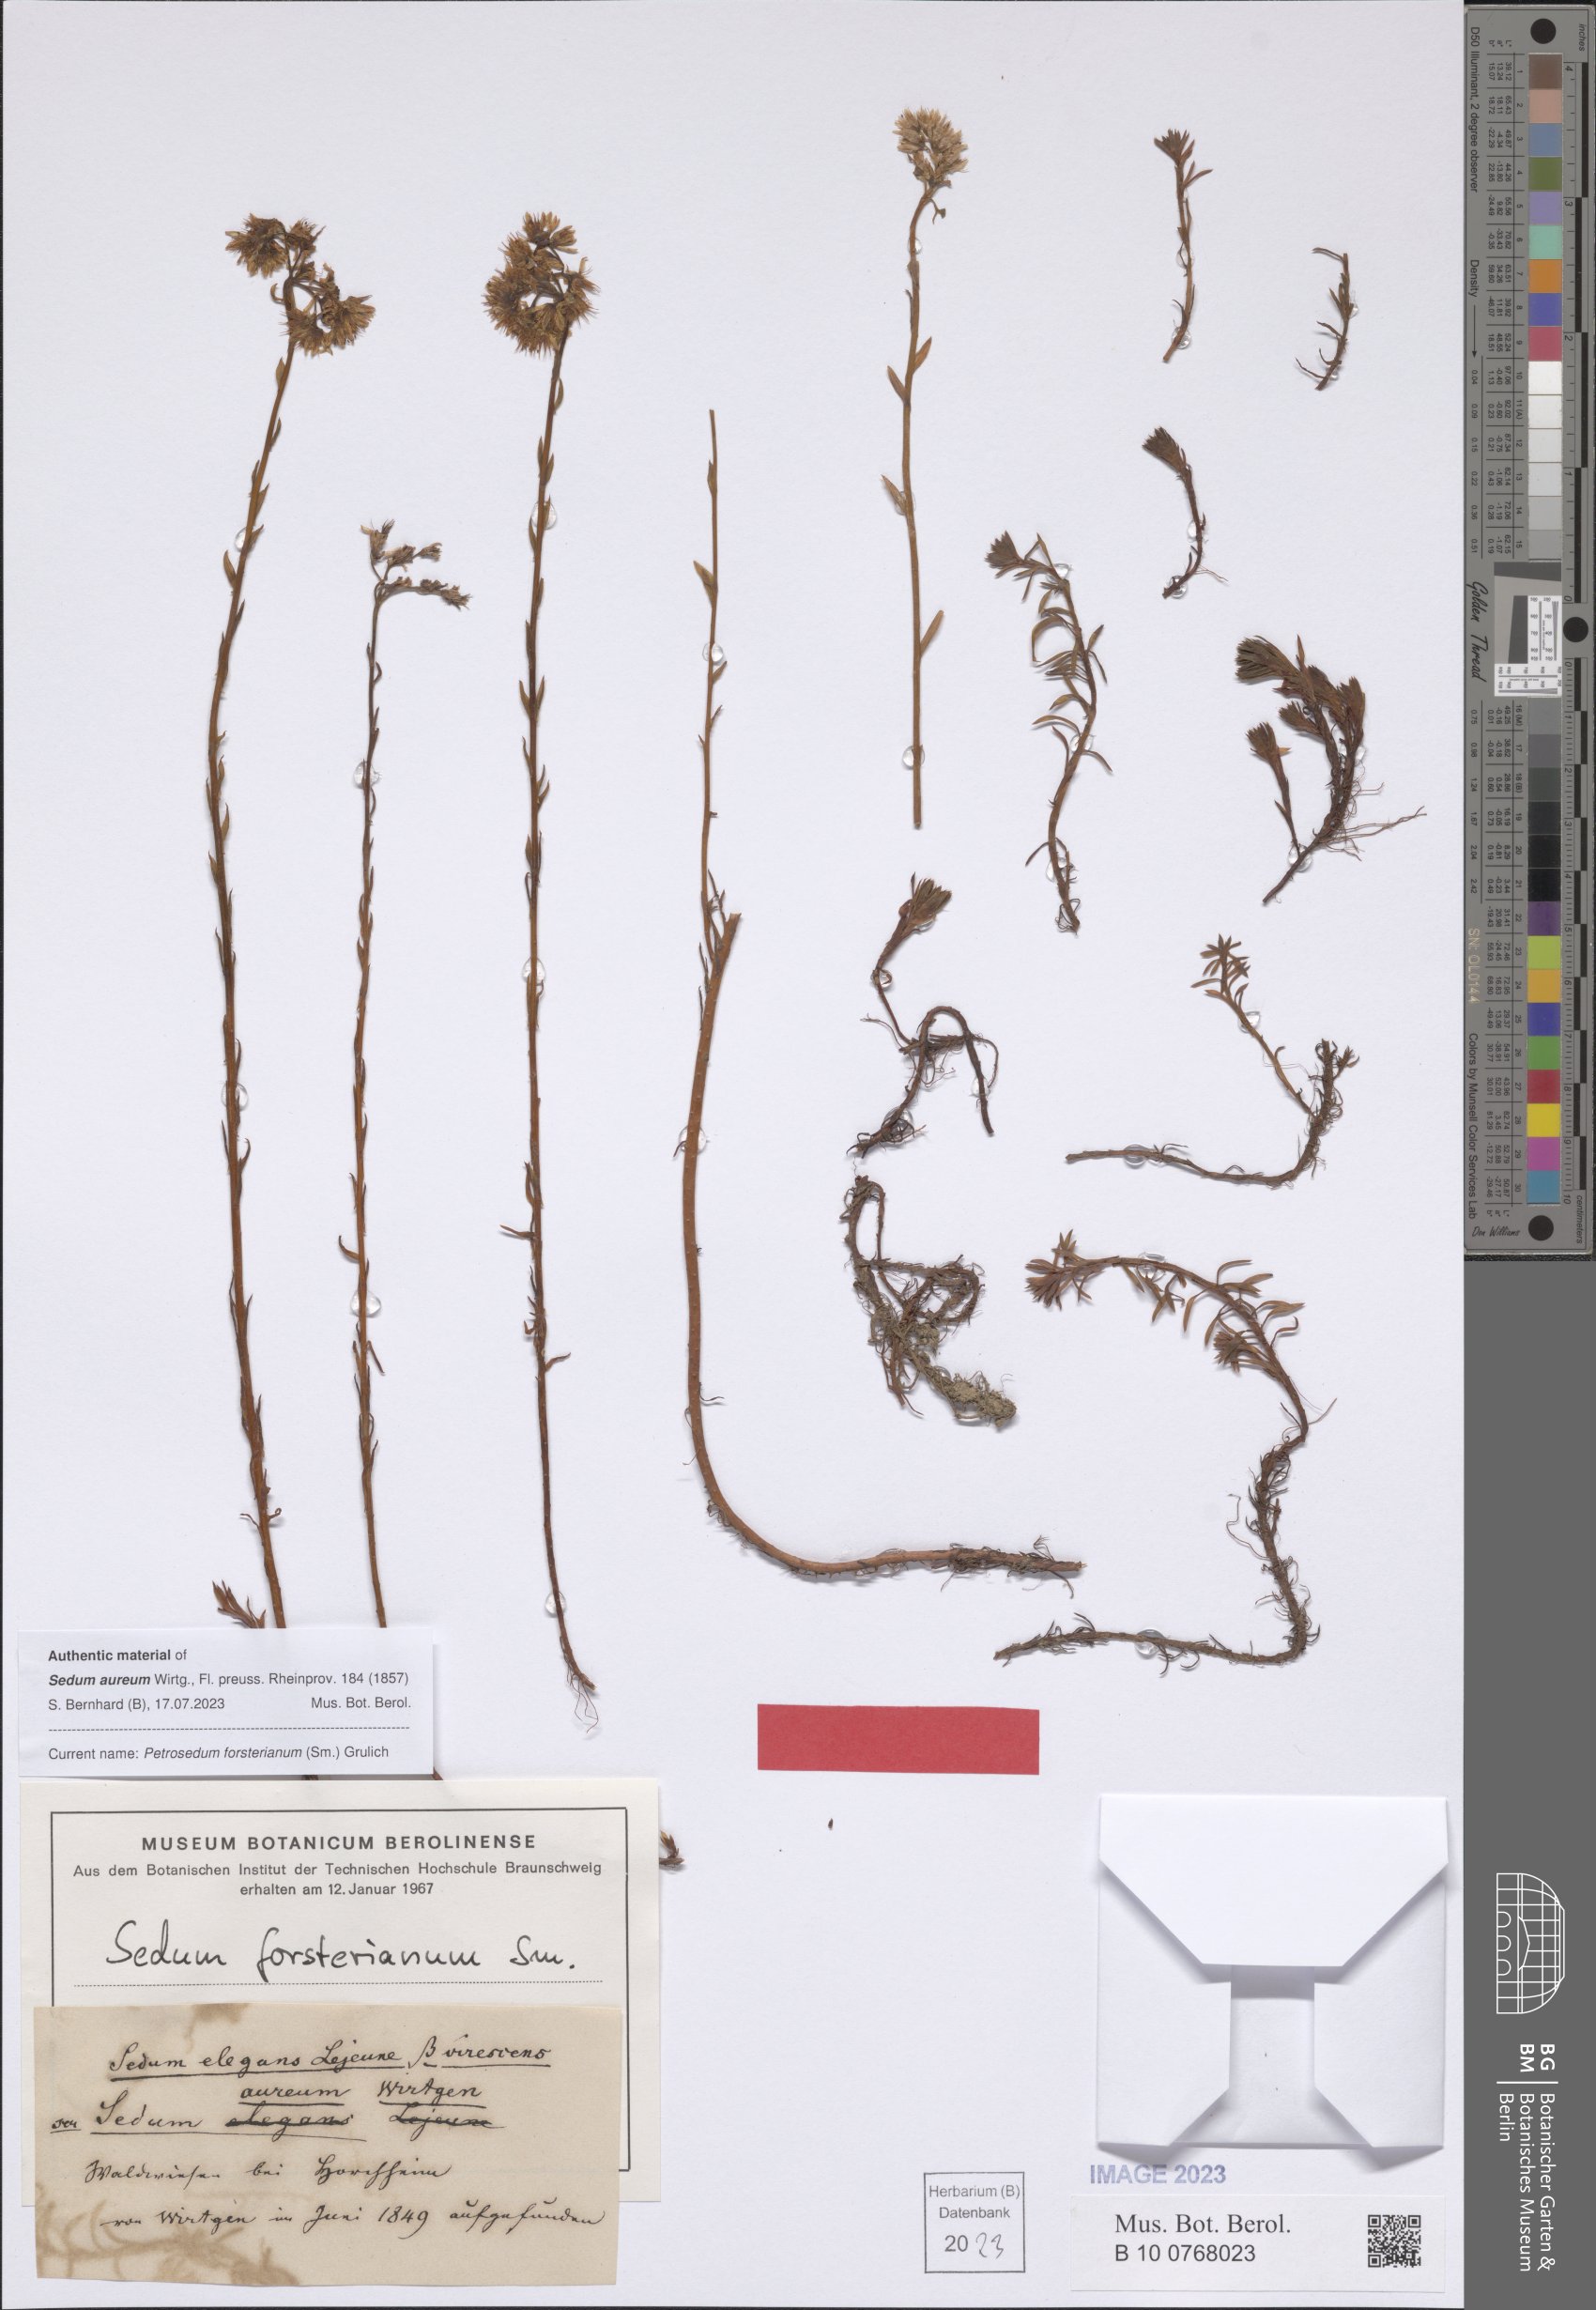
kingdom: Plantae
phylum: Tracheophyta
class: Magnoliopsida
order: Saxifragales
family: Crassulaceae
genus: Petrosedum
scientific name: Petrosedum forsterianum
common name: Forster's stonecrop
